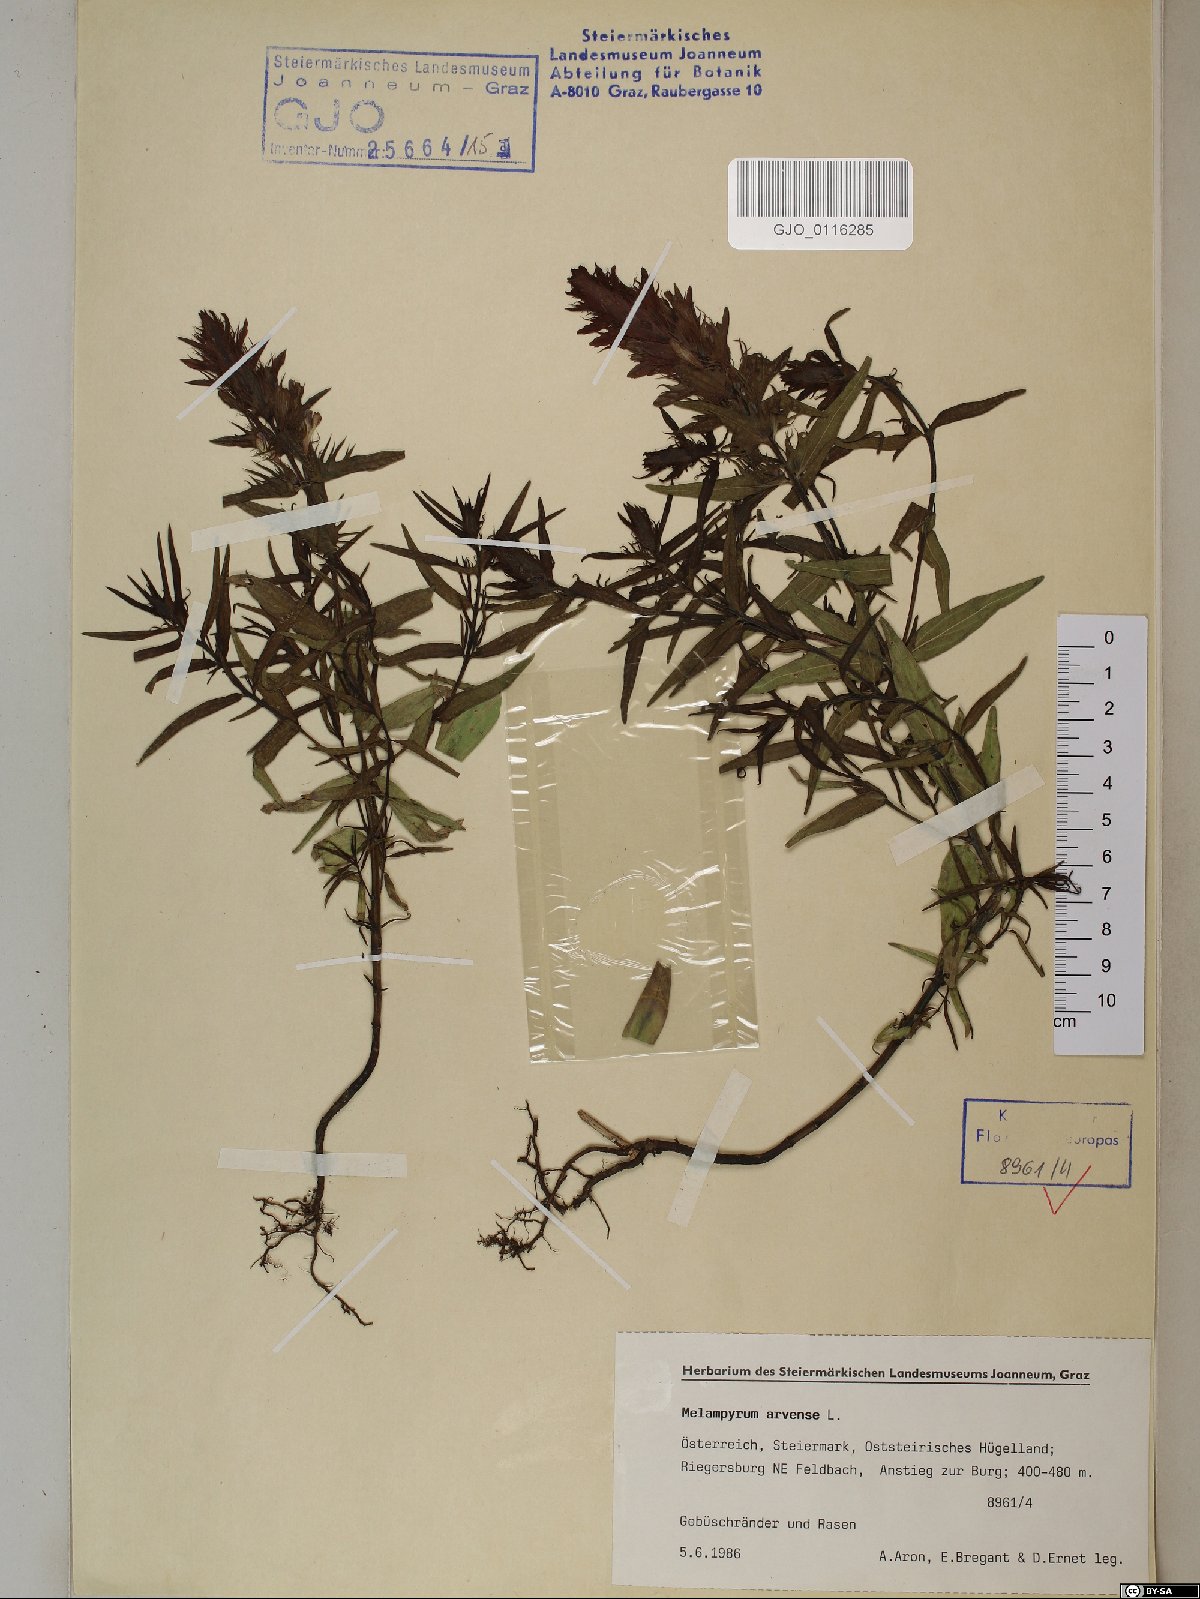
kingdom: Plantae
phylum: Tracheophyta
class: Magnoliopsida
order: Lamiales
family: Orobanchaceae
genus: Melampyrum
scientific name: Melampyrum arvense
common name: Field cow-wheat
